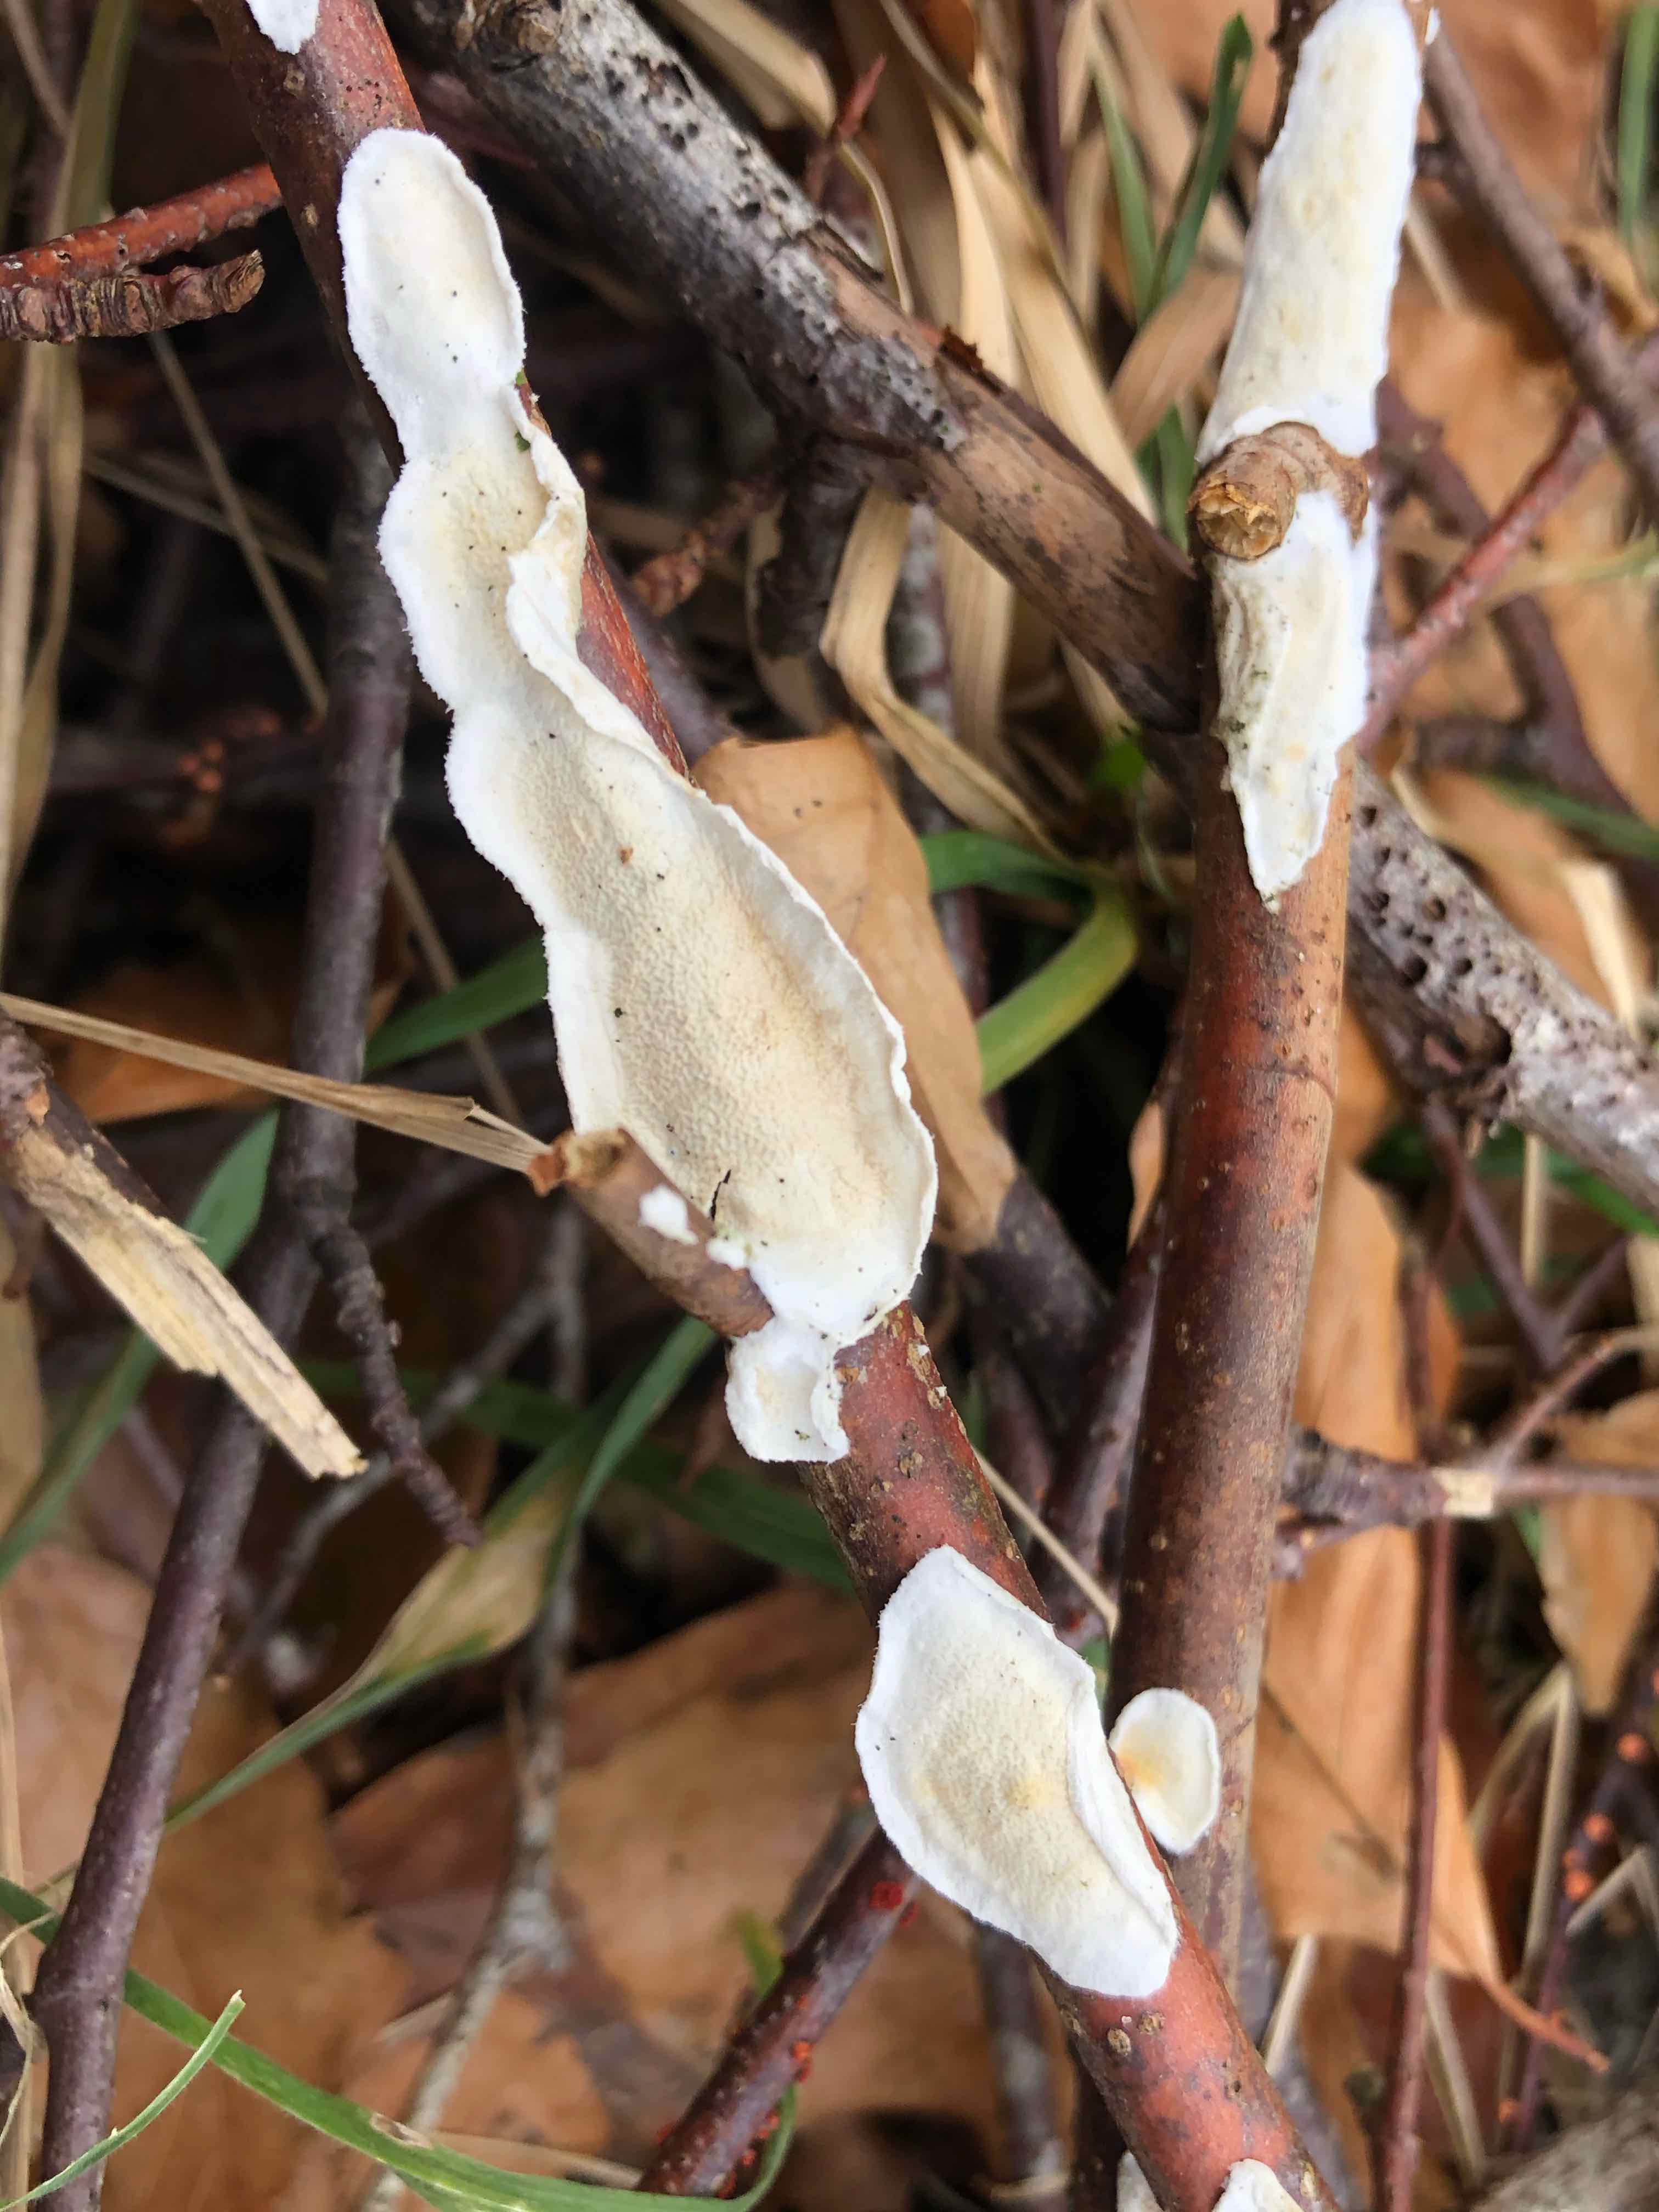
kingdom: Fungi
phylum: Basidiomycota
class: Agaricomycetes
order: Polyporales
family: Irpicaceae
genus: Byssomerulius
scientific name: Byssomerulius corium
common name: læder-åresvamp
